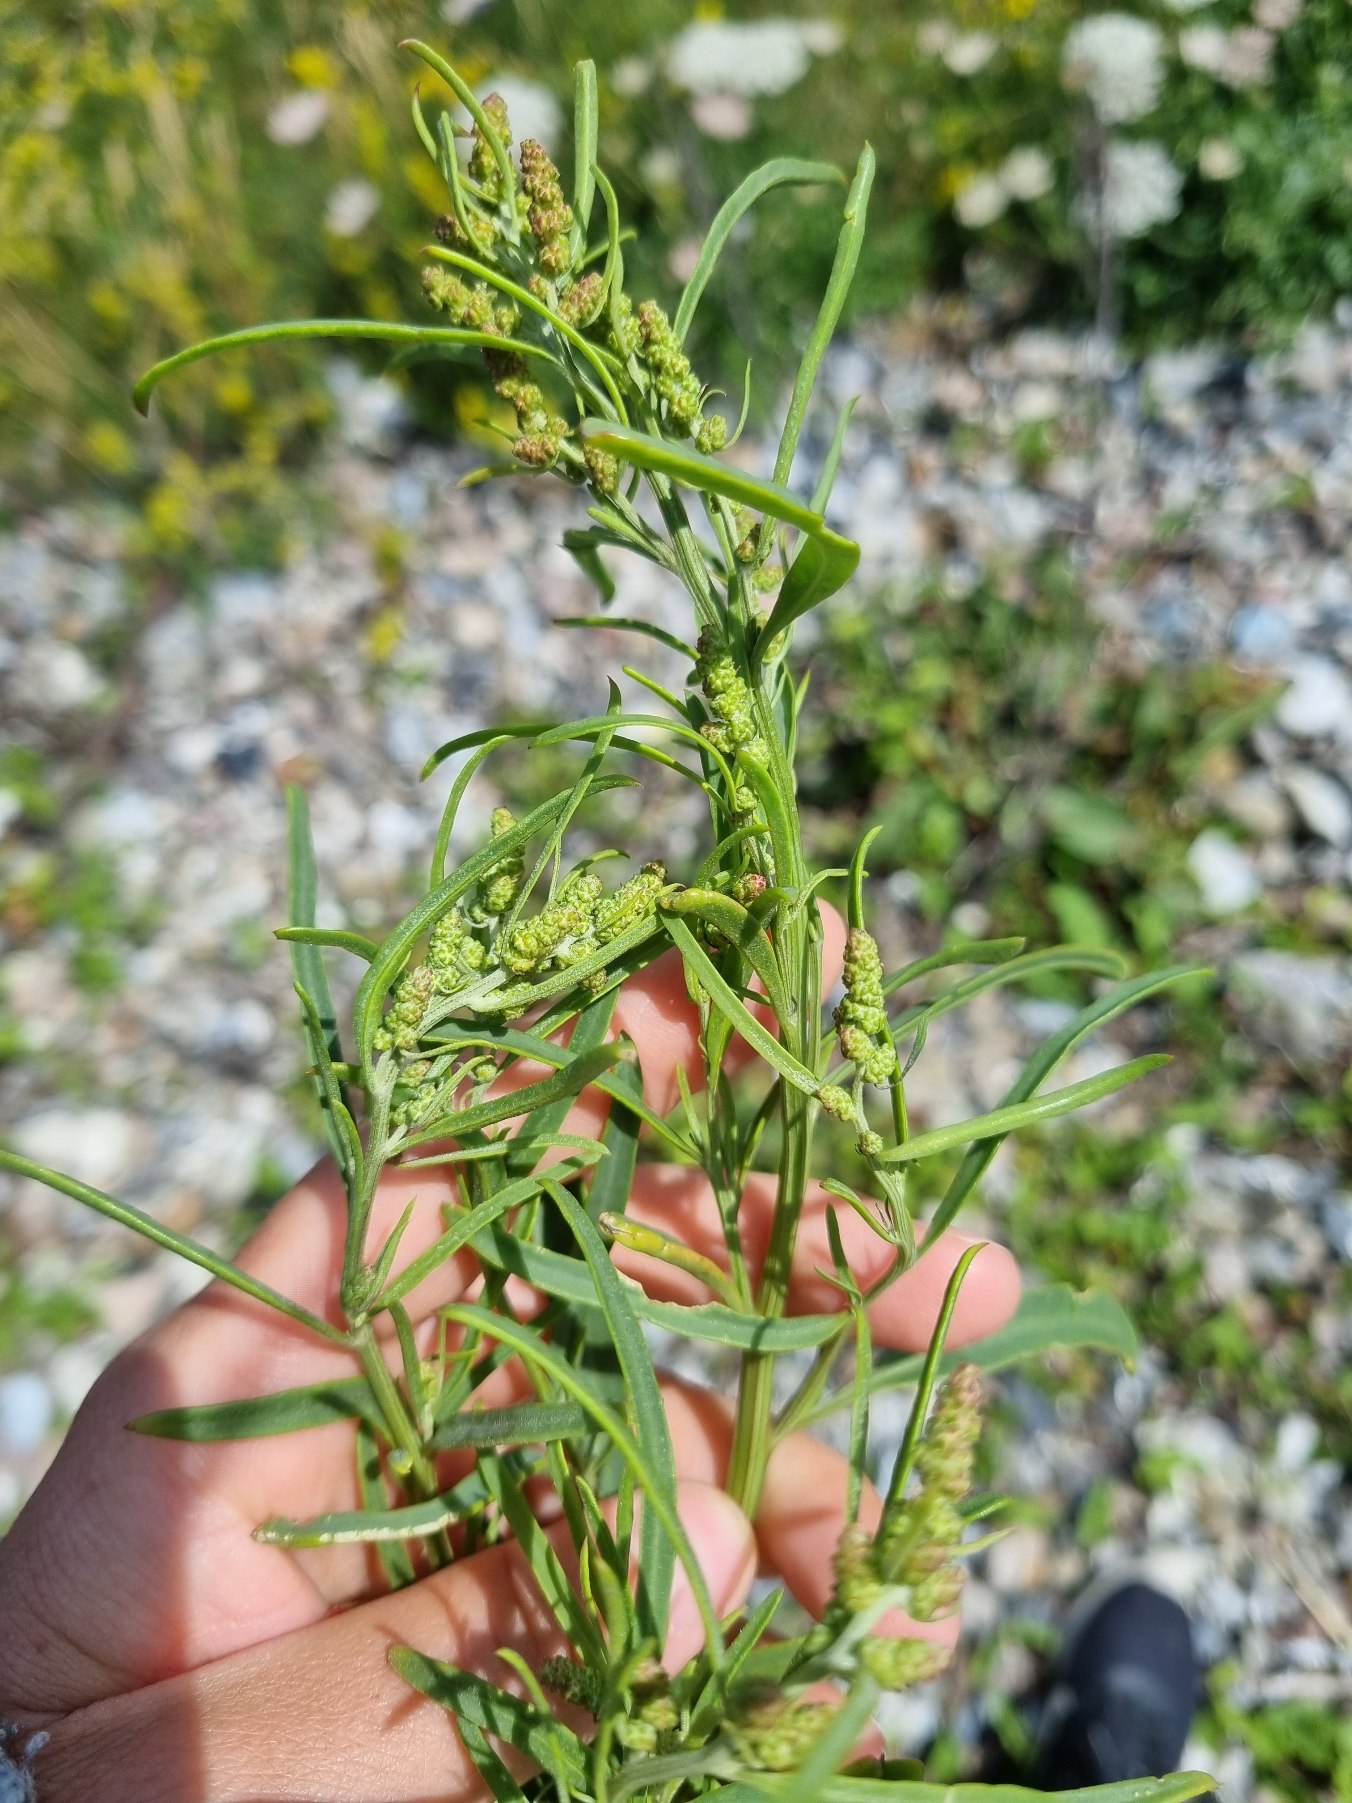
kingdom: Plantae
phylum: Tracheophyta
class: Magnoliopsida
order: Caryophyllales
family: Amaranthaceae
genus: Atriplex
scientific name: Atriplex littoralis
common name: Strand-mælde
